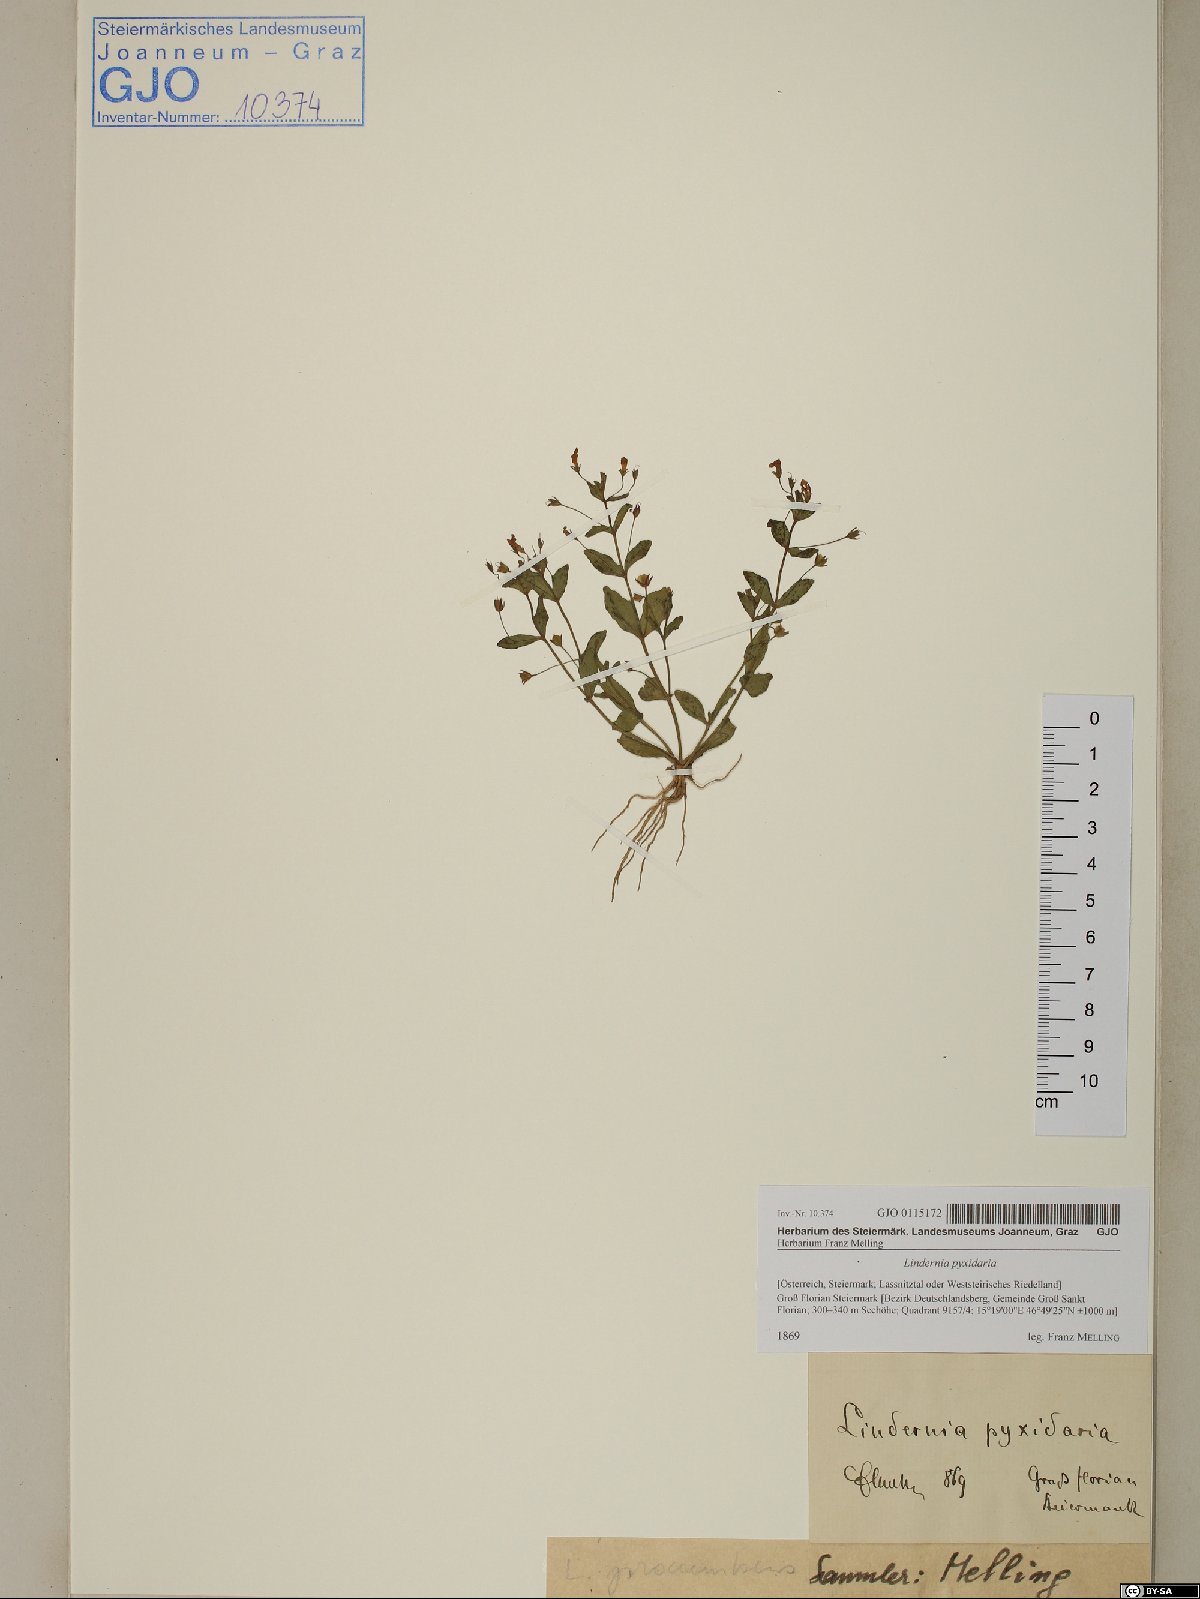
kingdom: Plantae
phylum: Tracheophyta
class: Magnoliopsida
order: Lamiales
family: Linderniaceae
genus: Lindernia
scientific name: Lindernia dubia
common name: Annual false pimpernel
